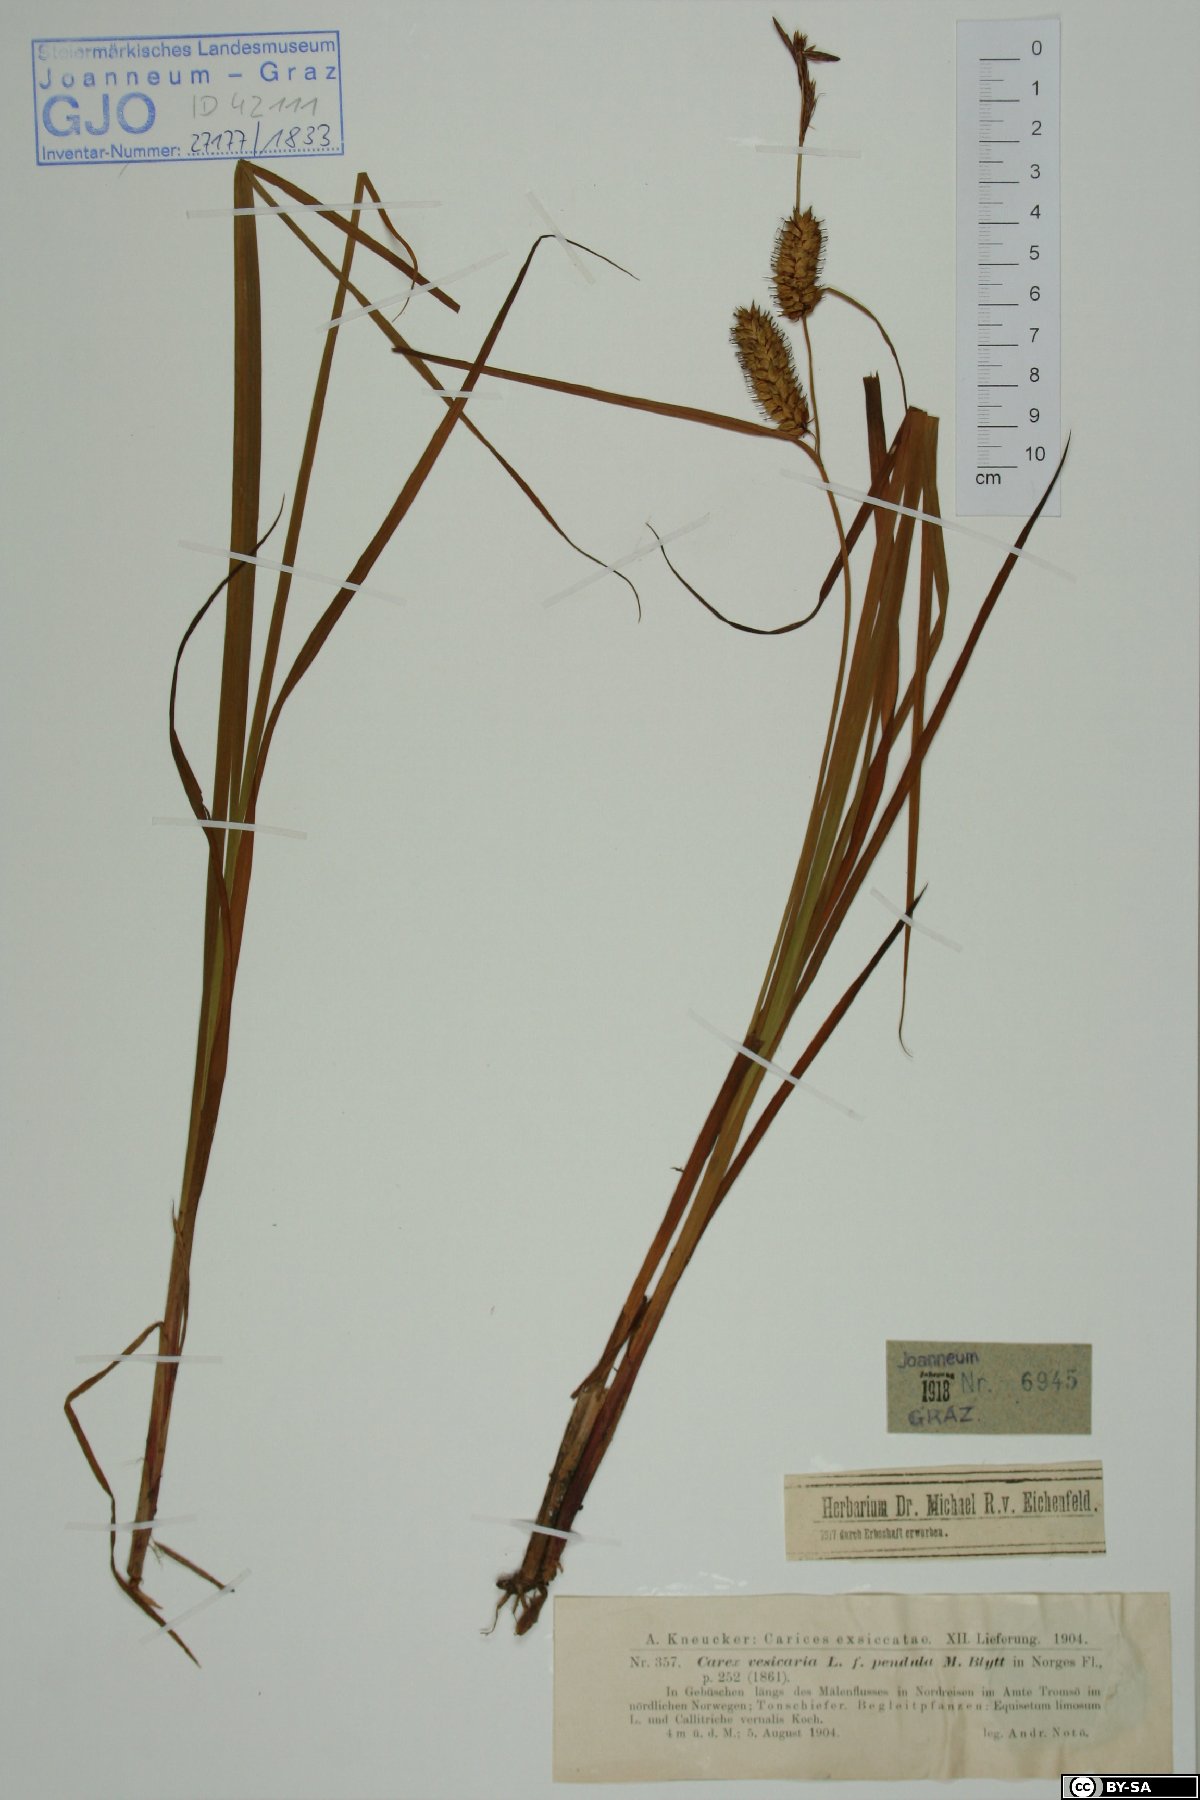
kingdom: Plantae
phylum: Tracheophyta
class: Liliopsida
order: Poales
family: Cyperaceae
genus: Carex
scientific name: Carex vesicaria
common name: Bladder-sedge
